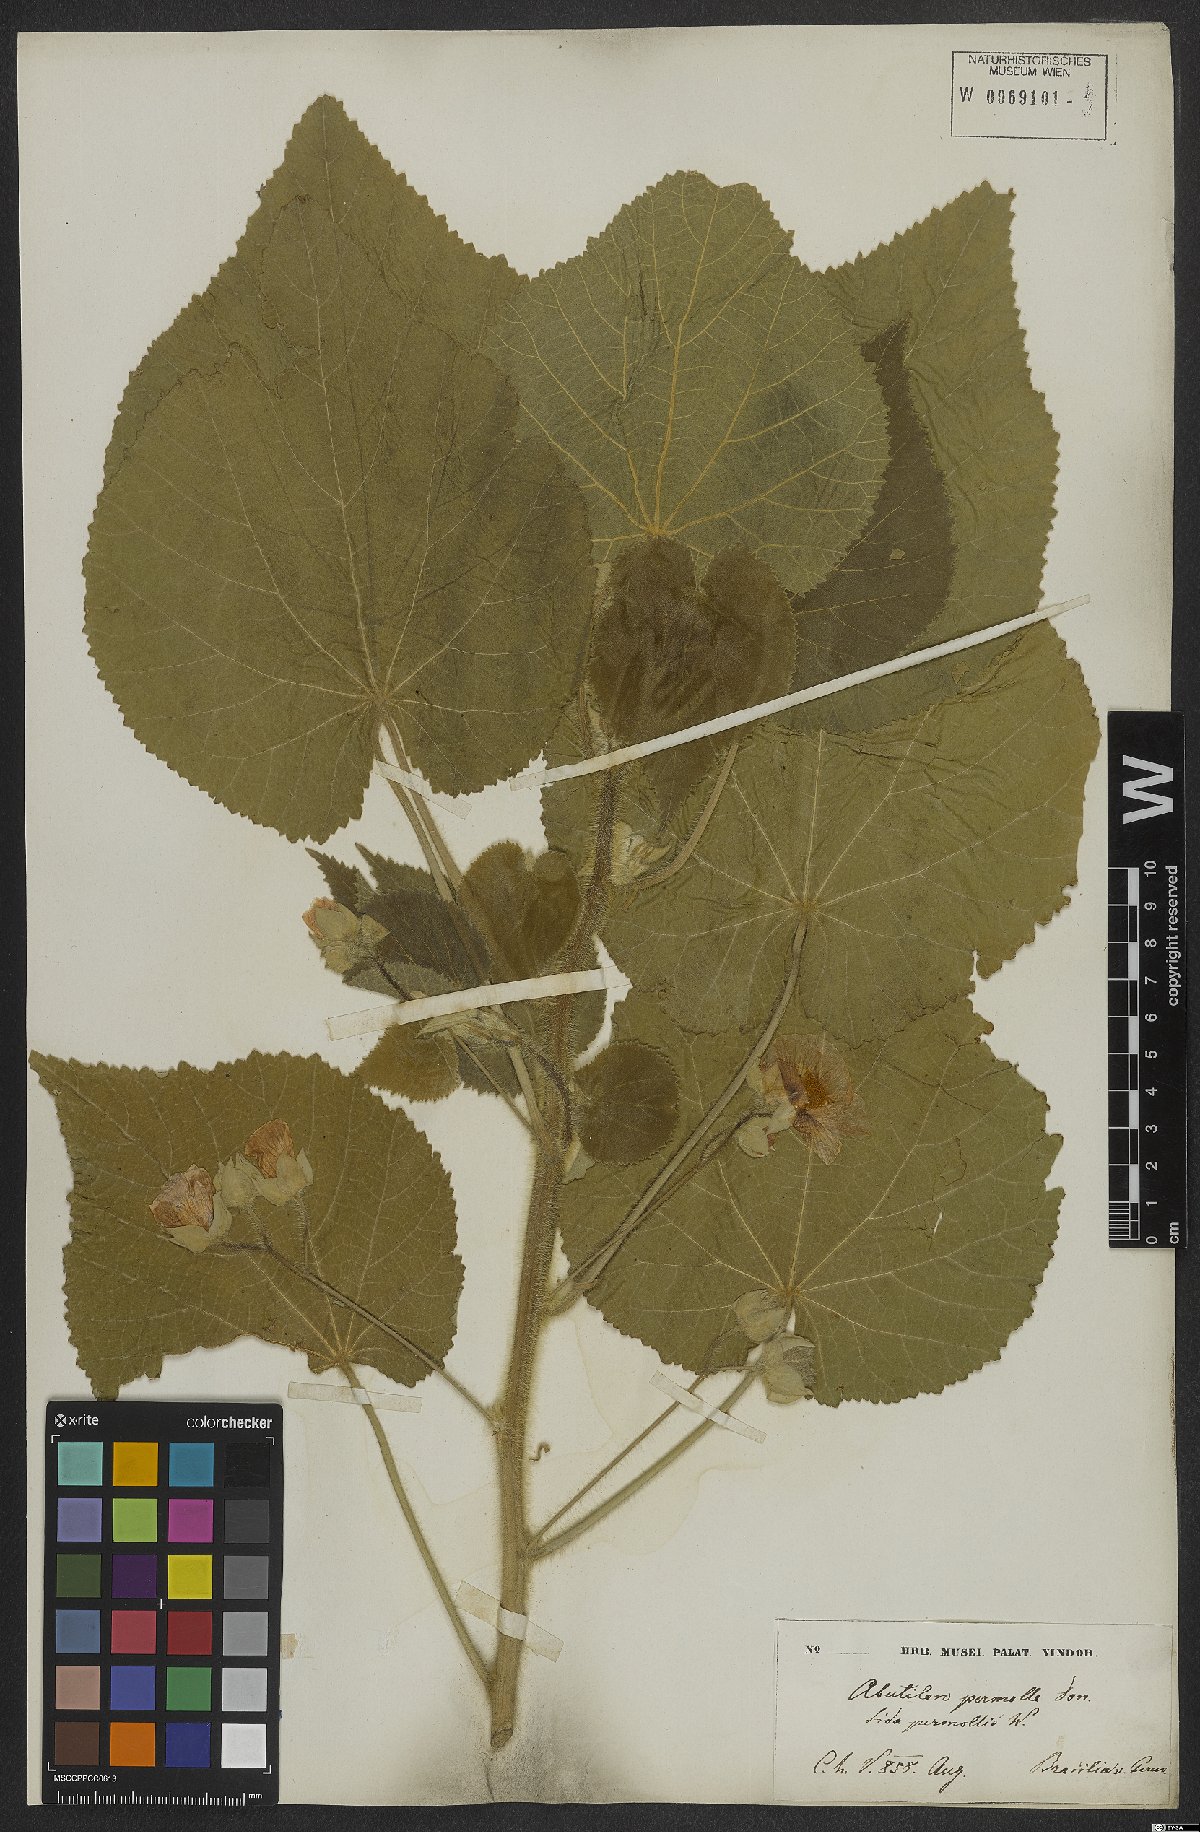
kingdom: Plantae
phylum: Tracheophyta
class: Magnoliopsida
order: Malvales
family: Malvaceae
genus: Callianthe
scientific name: Callianthe petiolaris
